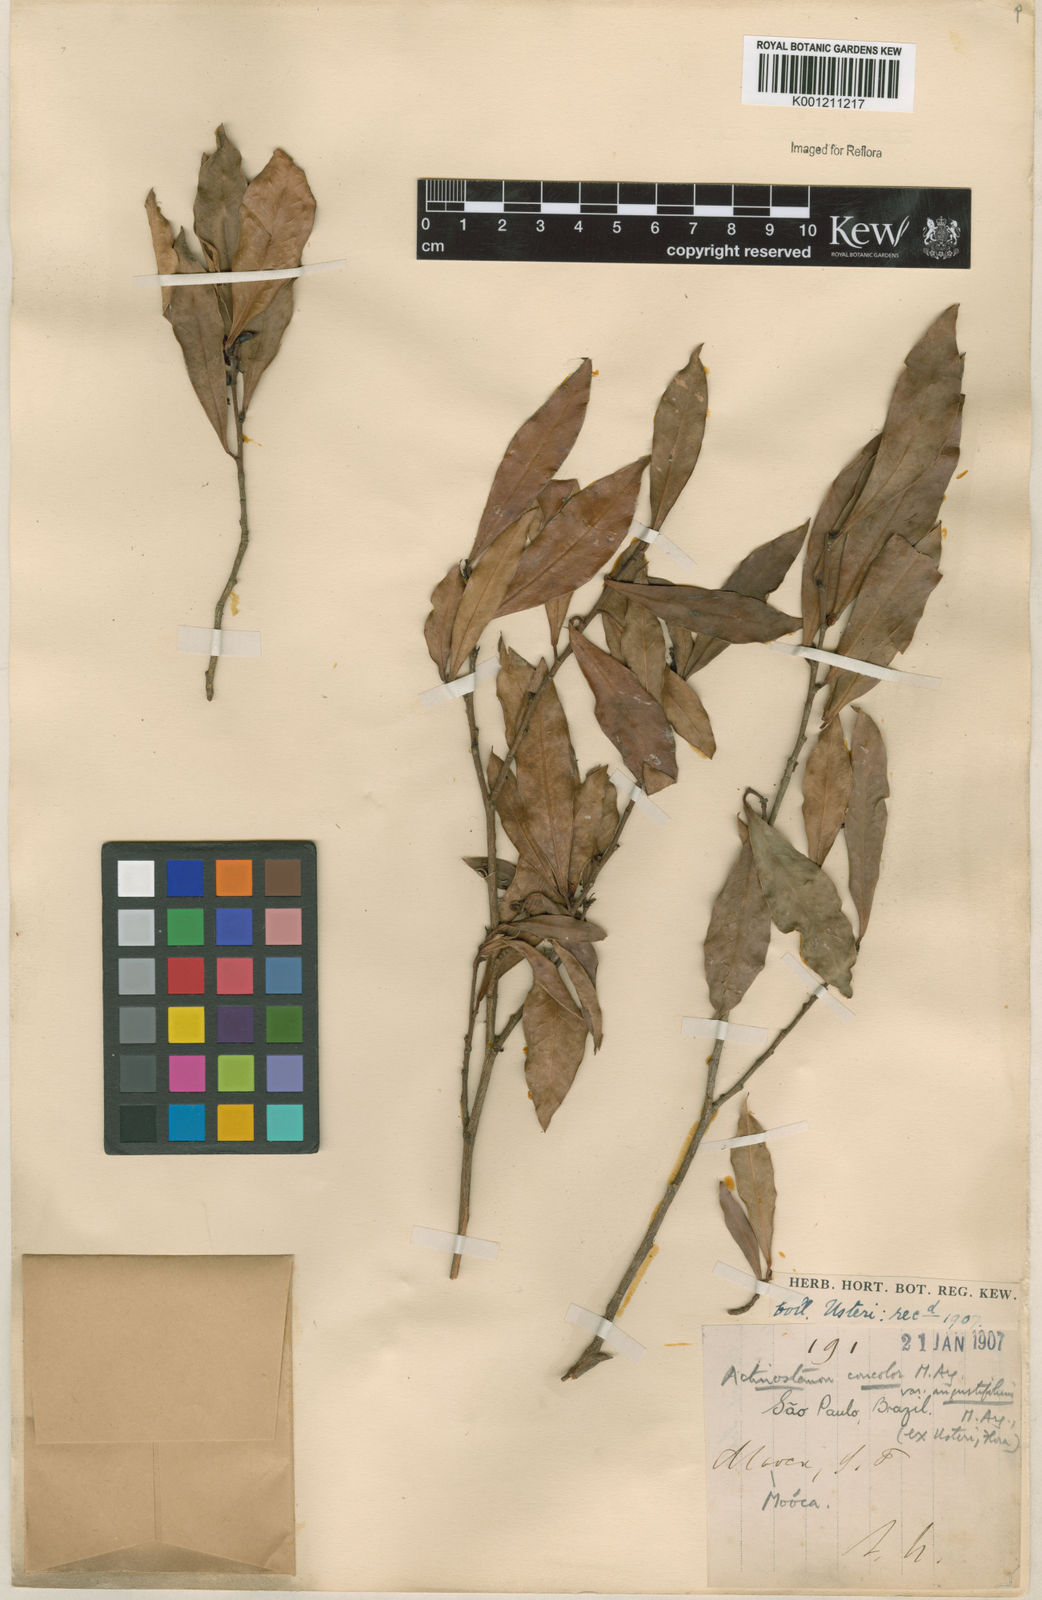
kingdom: Plantae
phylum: Tracheophyta
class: Magnoliopsida
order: Malpighiales
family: Euphorbiaceae
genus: Actinostemon
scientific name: Actinostemon
